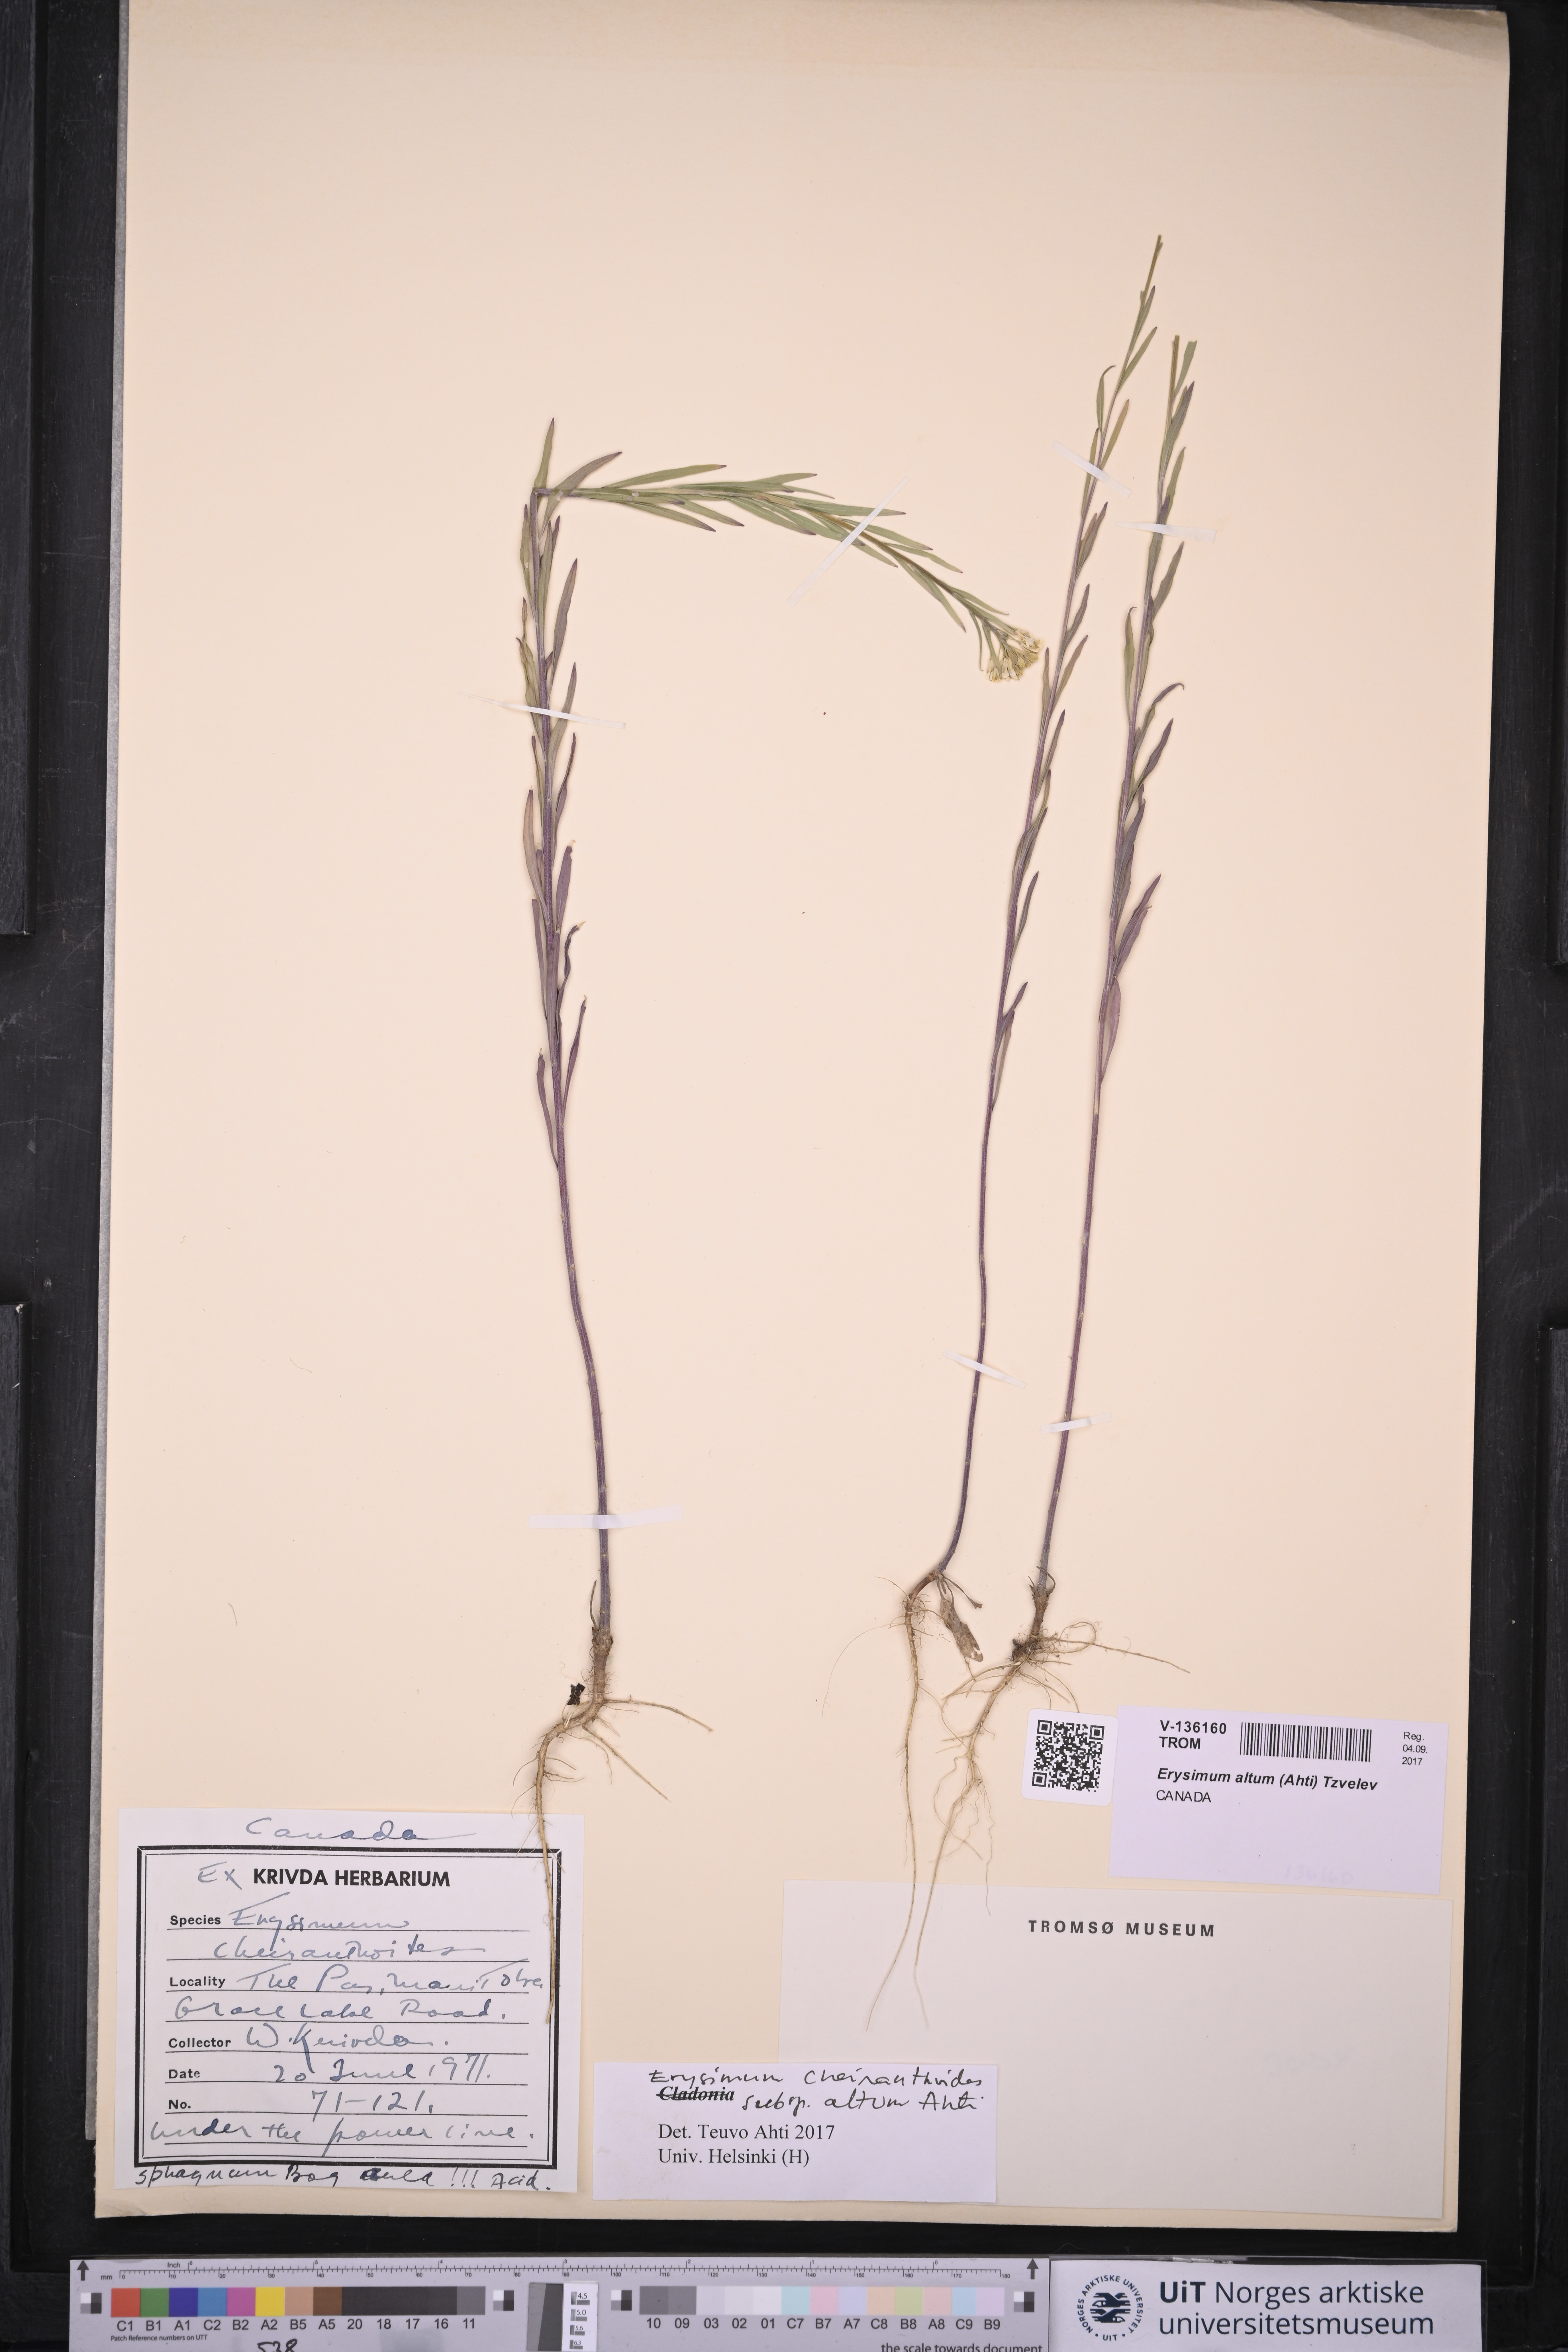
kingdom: Plantae
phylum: Tracheophyta
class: Magnoliopsida
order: Brassicales
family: Brassicaceae
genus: Erysimum
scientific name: Erysimum cheiranthoides
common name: Treacle mustard
